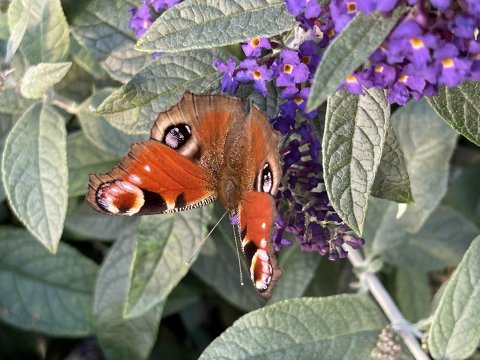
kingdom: Animalia
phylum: Arthropoda
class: Insecta
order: Lepidoptera
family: Nymphalidae
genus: Aglais
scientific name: Aglais io
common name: European Peacock
